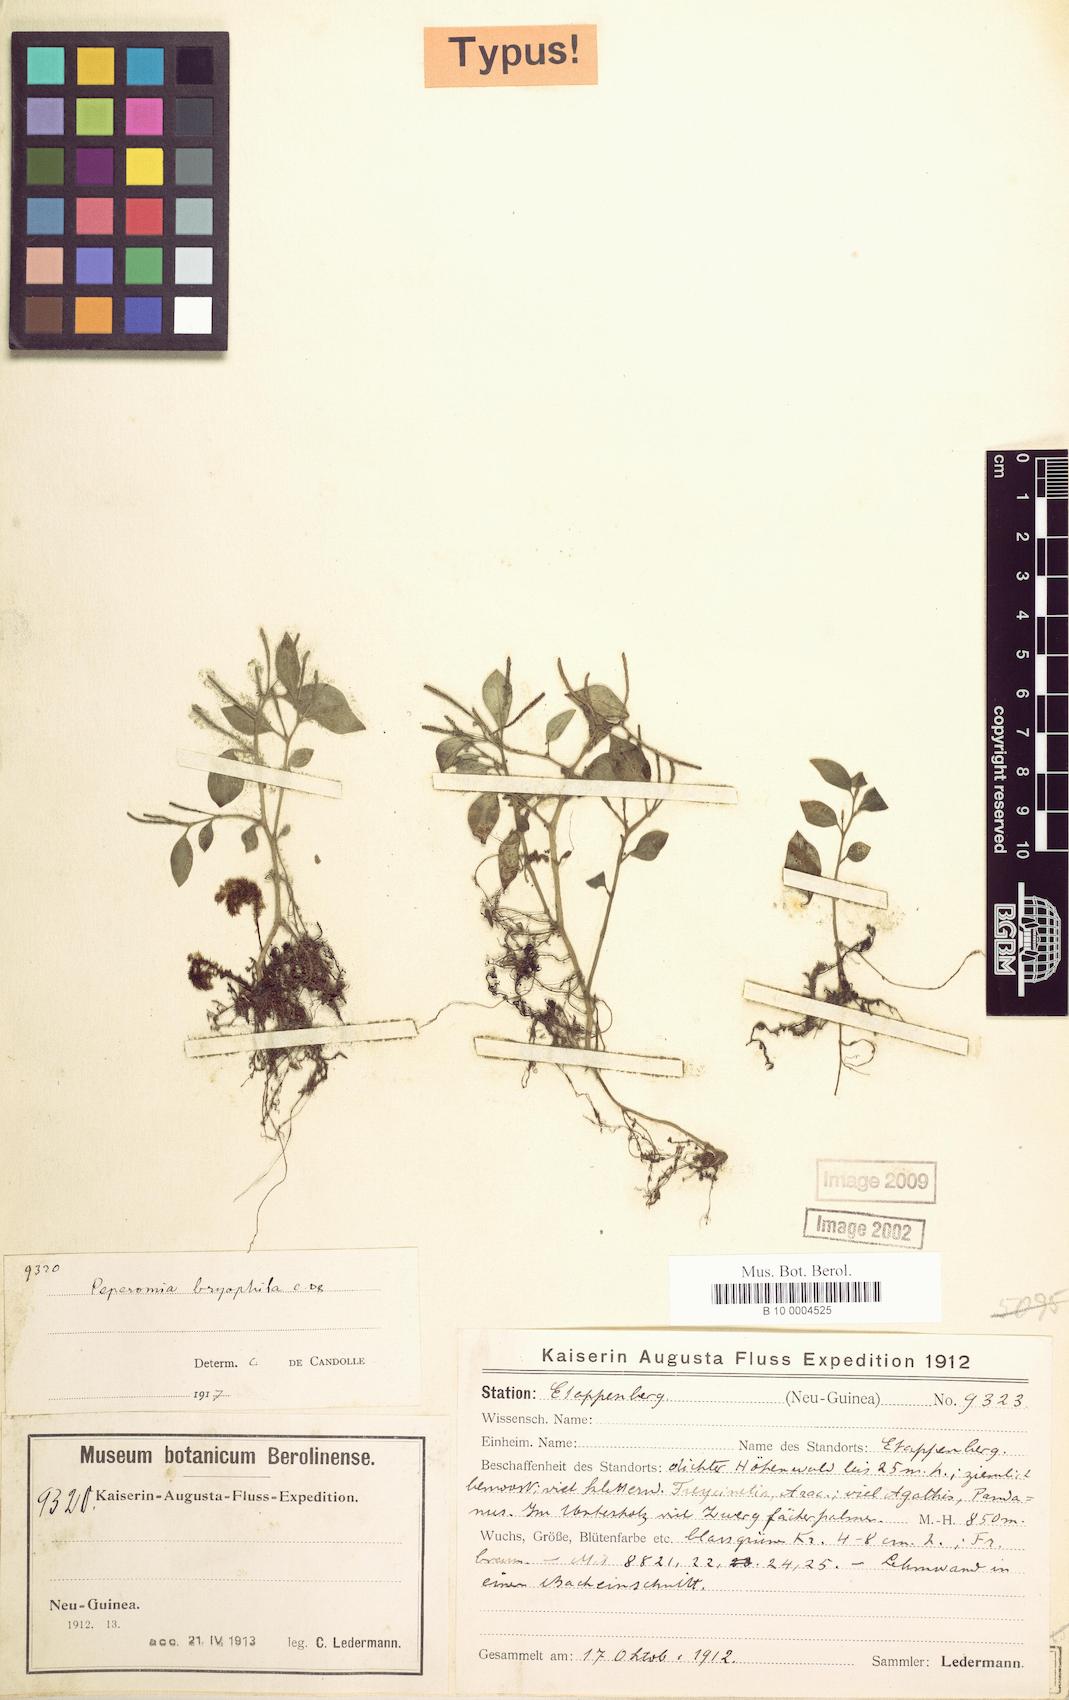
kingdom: Plantae
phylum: Tracheophyta
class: Magnoliopsida
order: Piperales
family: Piperaceae
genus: Peperomia
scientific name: Peperomia bryophila
